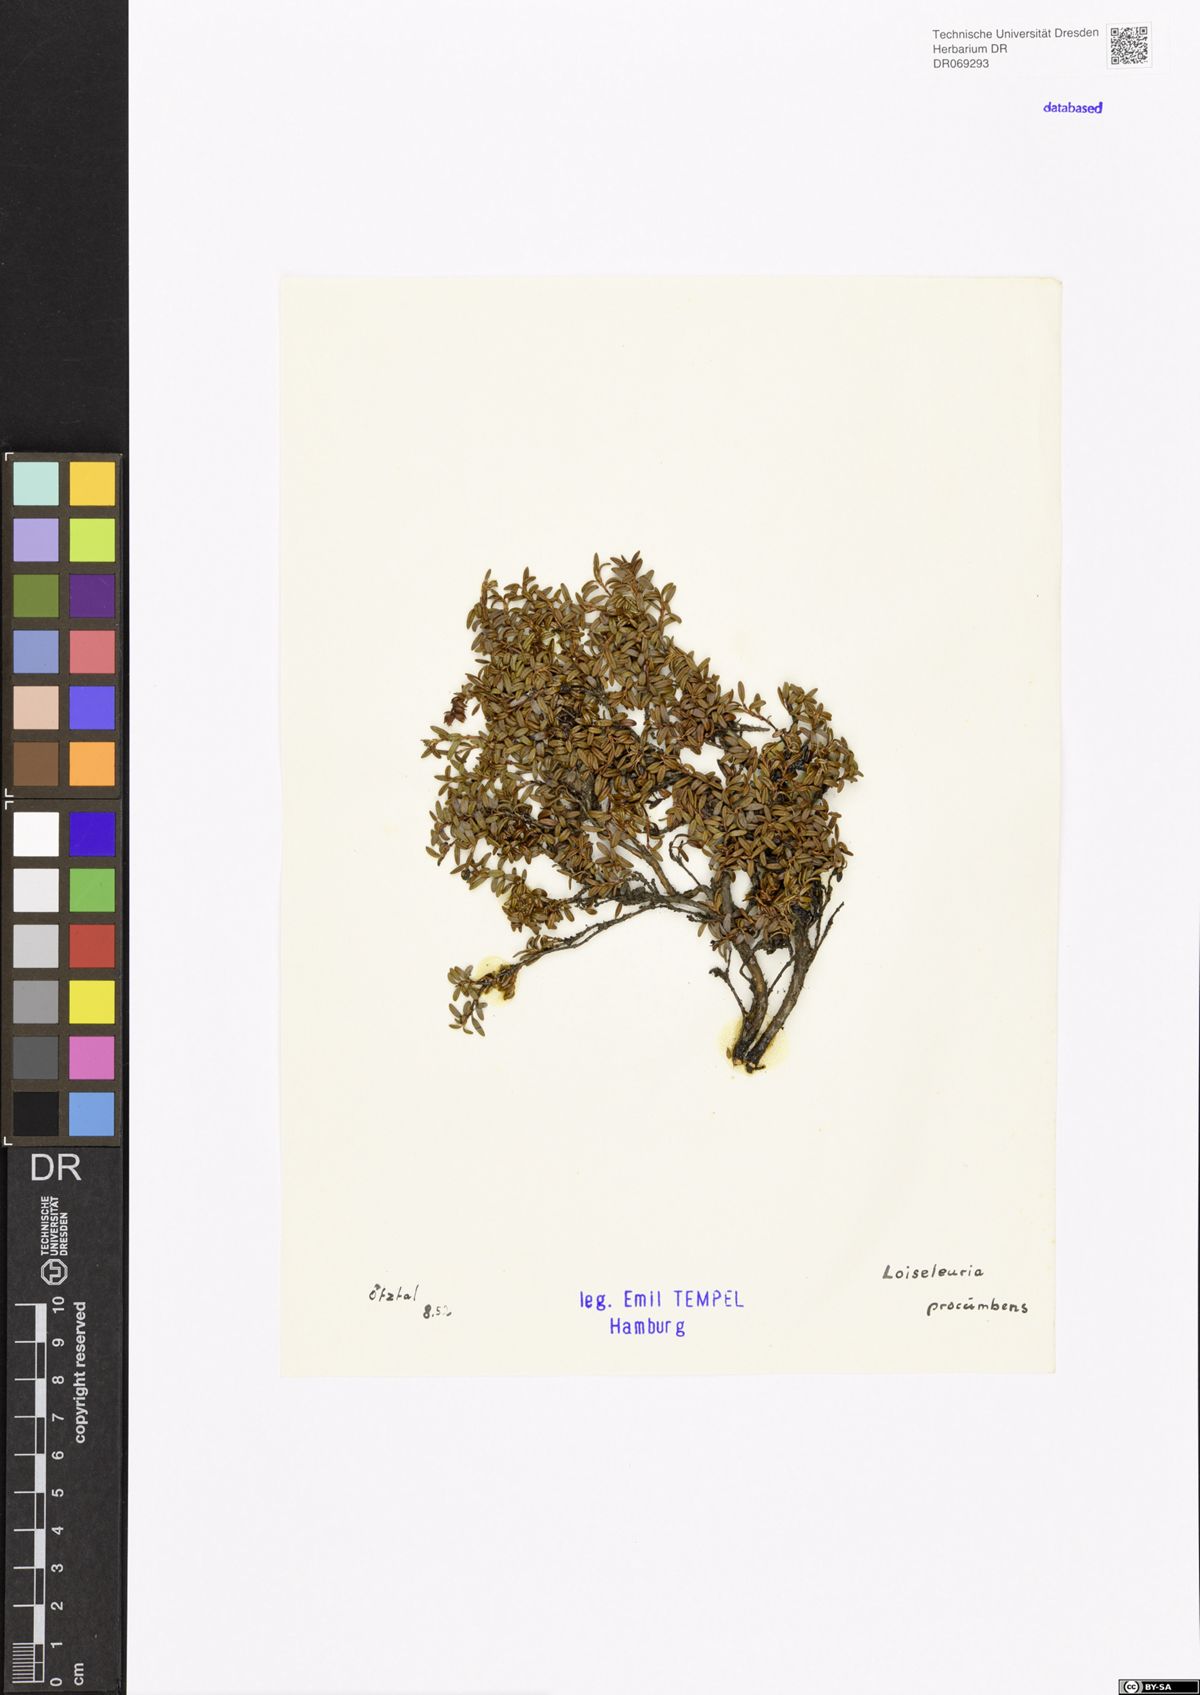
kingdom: Plantae
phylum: Tracheophyta
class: Magnoliopsida
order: Ericales
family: Ericaceae
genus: Kalmia
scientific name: Kalmia procumbens
